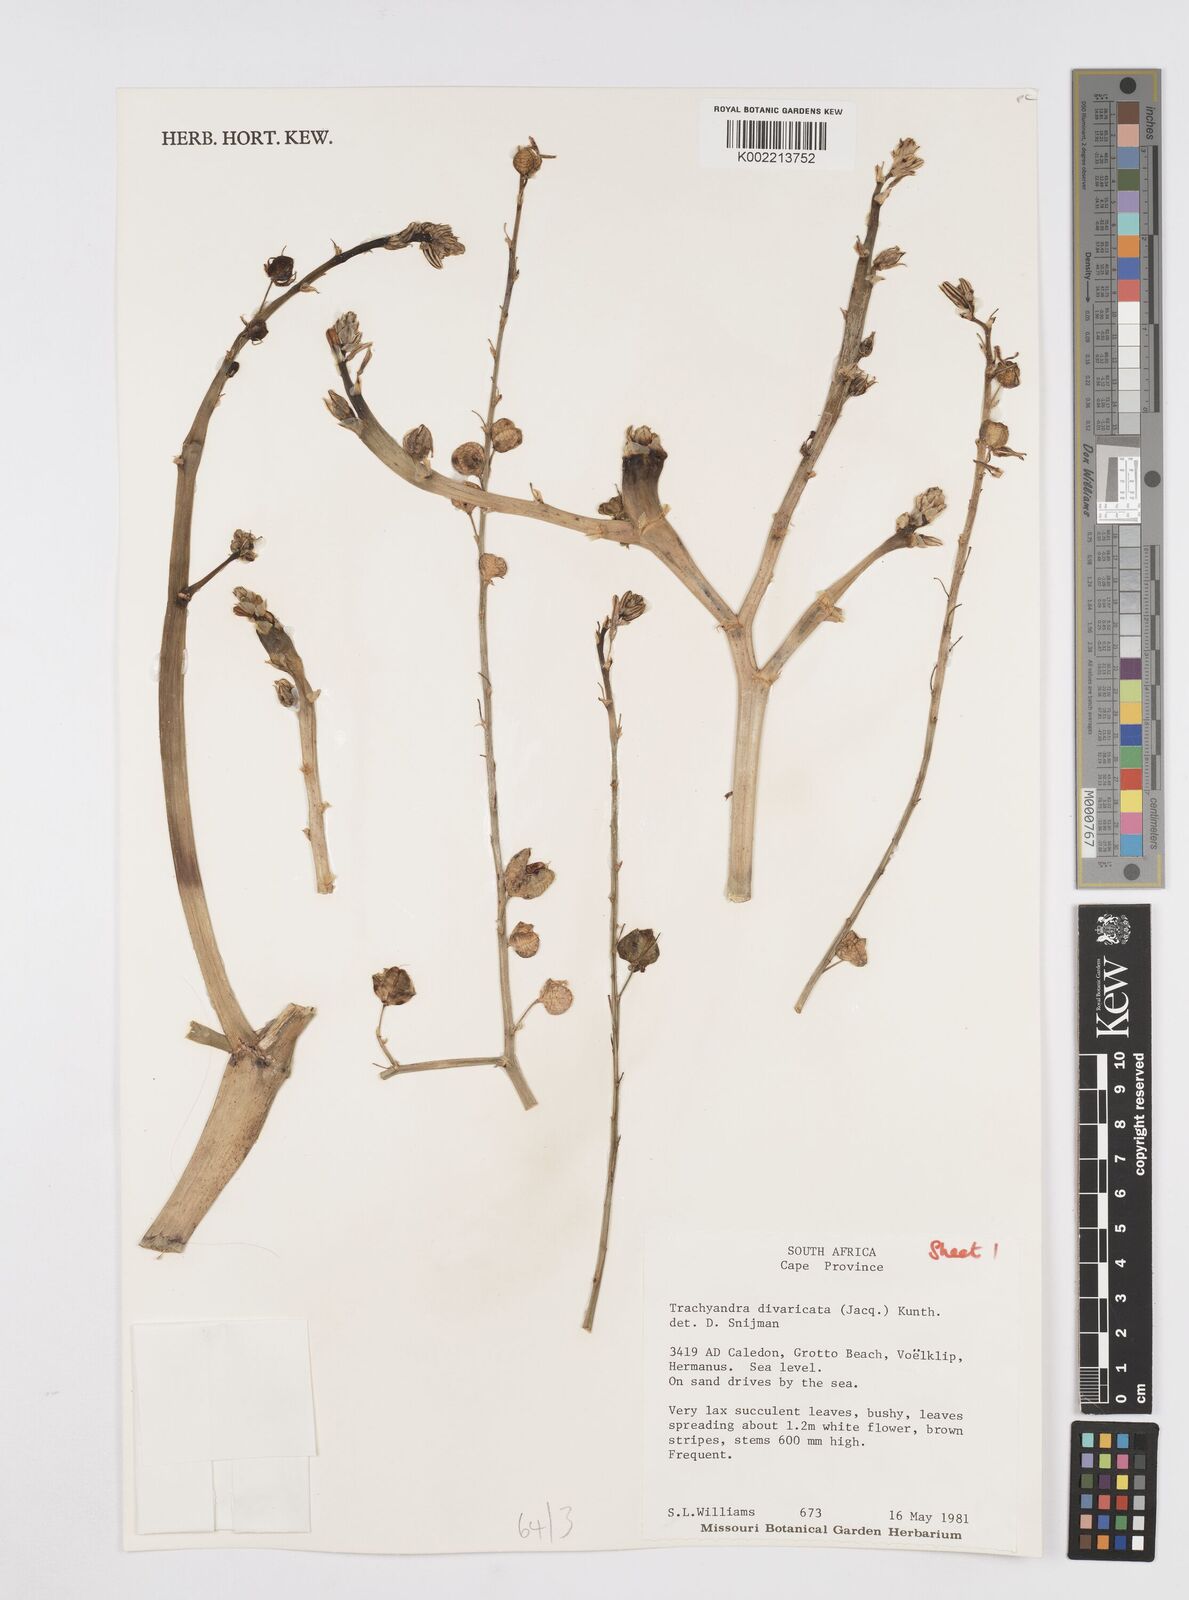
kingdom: Plantae
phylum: Tracheophyta
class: Liliopsida
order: Asparagales
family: Asphodelaceae
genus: Trachyandra
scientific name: Trachyandra divaricata
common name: Dune onionweed
